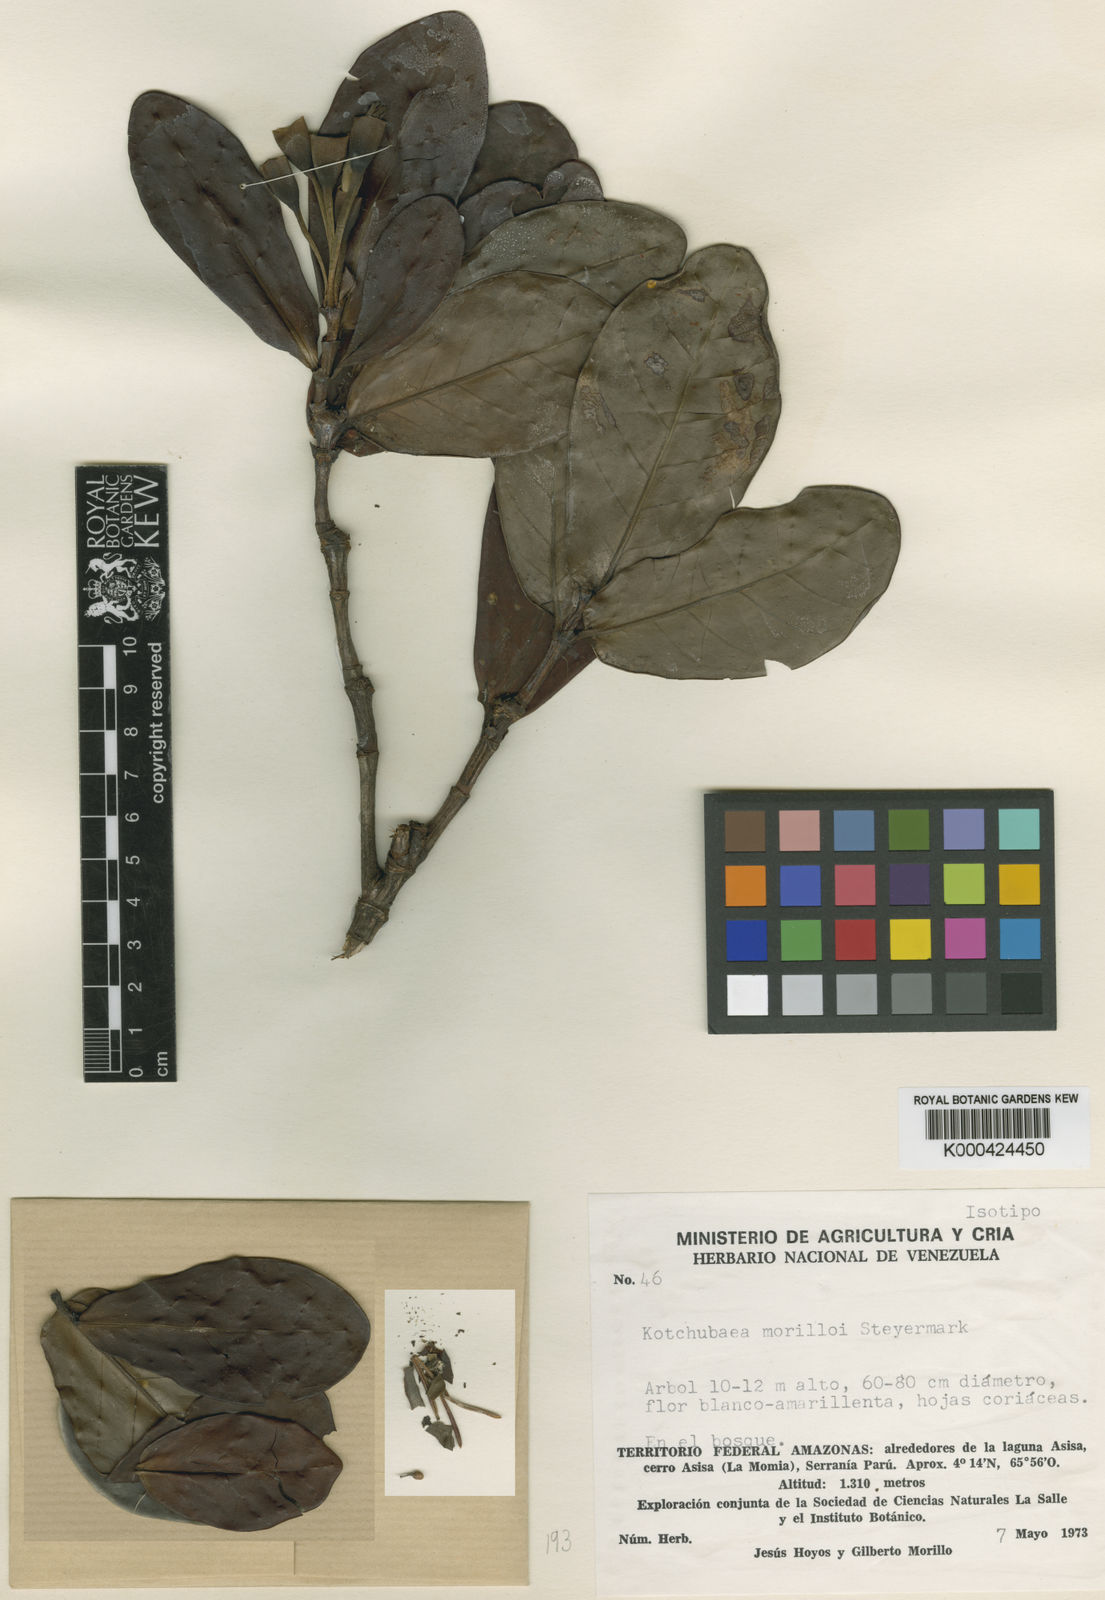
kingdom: Plantae
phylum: Tracheophyta
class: Magnoliopsida
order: Gentianales
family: Rubiaceae
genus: Kutchubaea
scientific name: Kutchubaea morilloi
